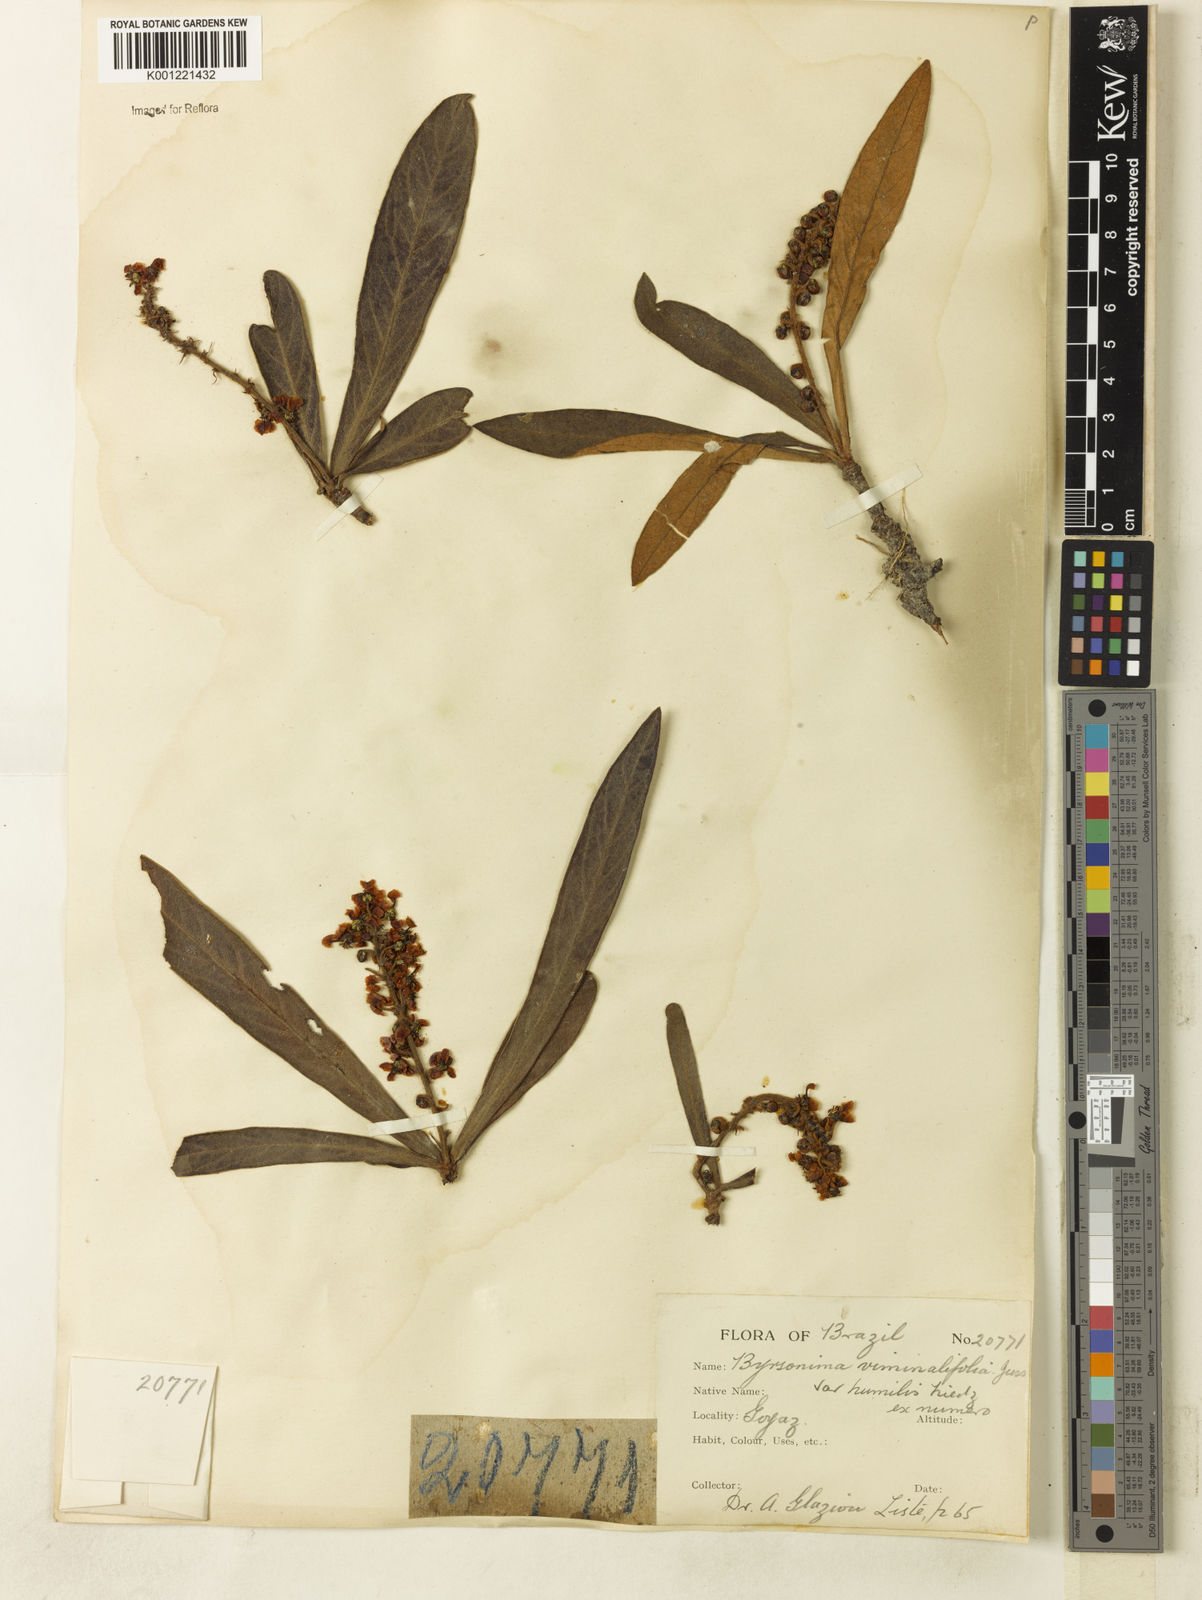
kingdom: Plantae
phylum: Tracheophyta
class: Magnoliopsida
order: Malpighiales
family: Malpighiaceae
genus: Byrsonima
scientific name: Byrsonima viminifolia
